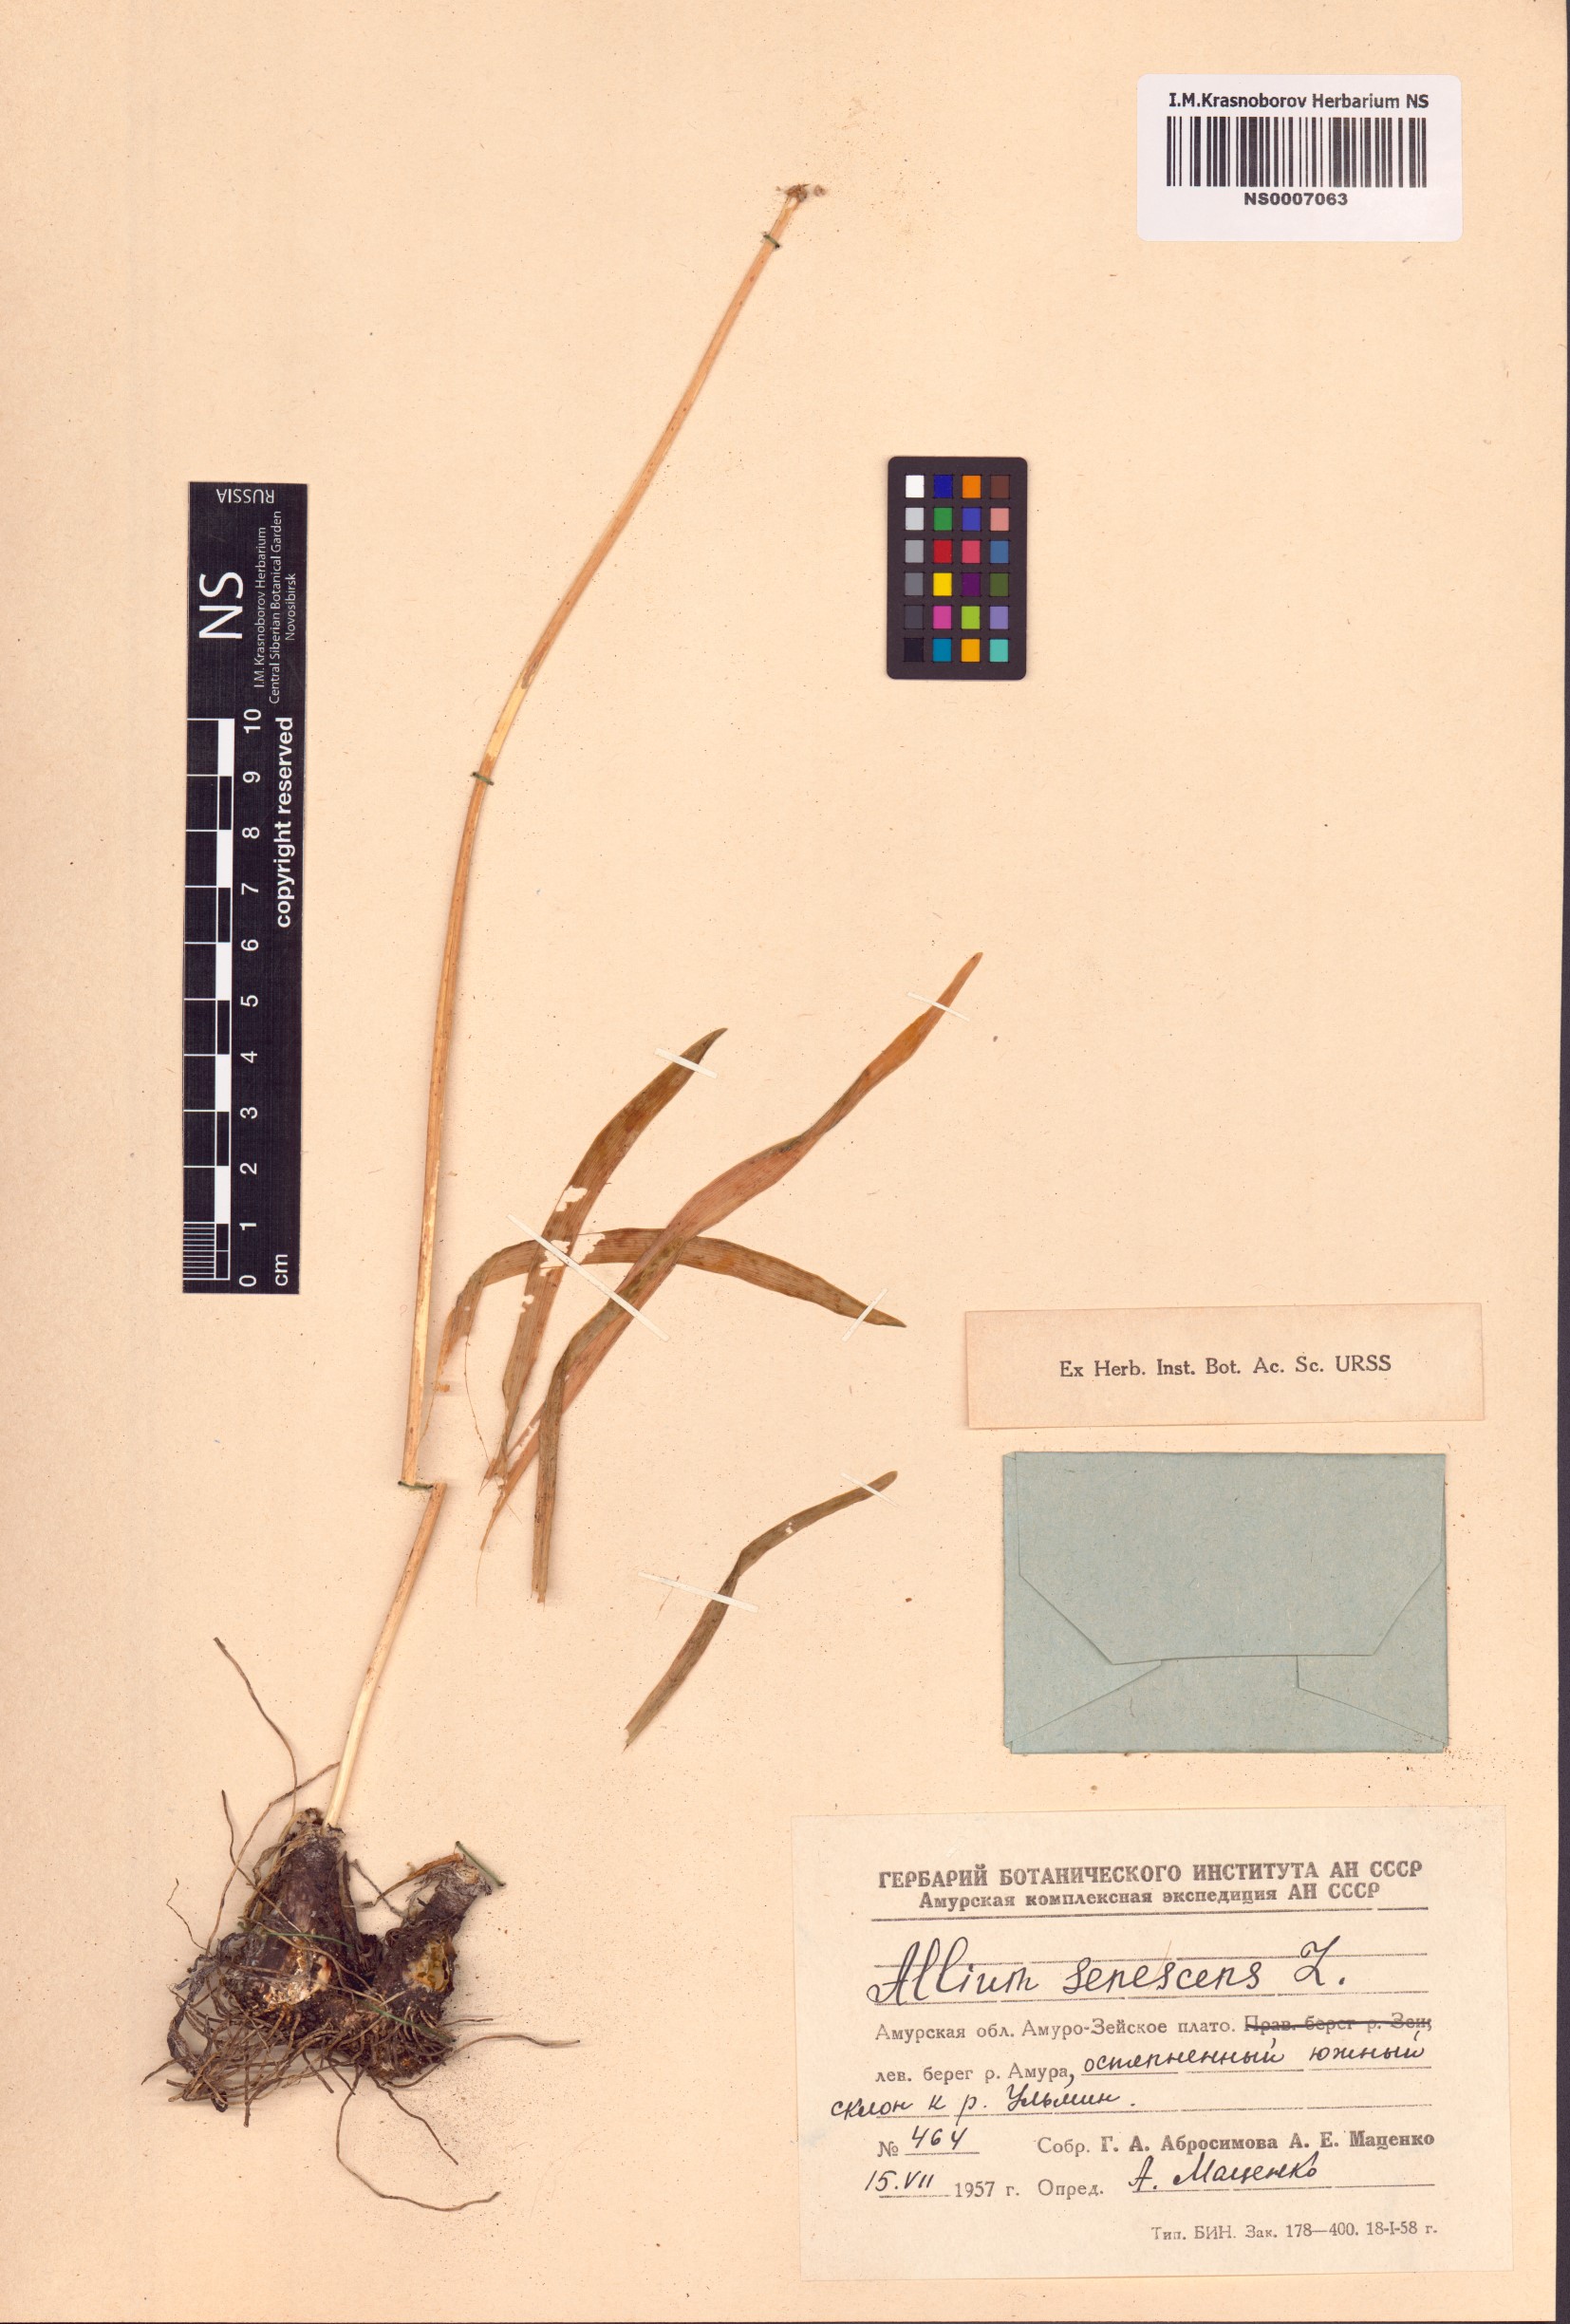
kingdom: Plantae
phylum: Tracheophyta
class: Liliopsida
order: Asparagales
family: Amaryllidaceae
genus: Allium
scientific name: Allium senescens
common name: German garlic
